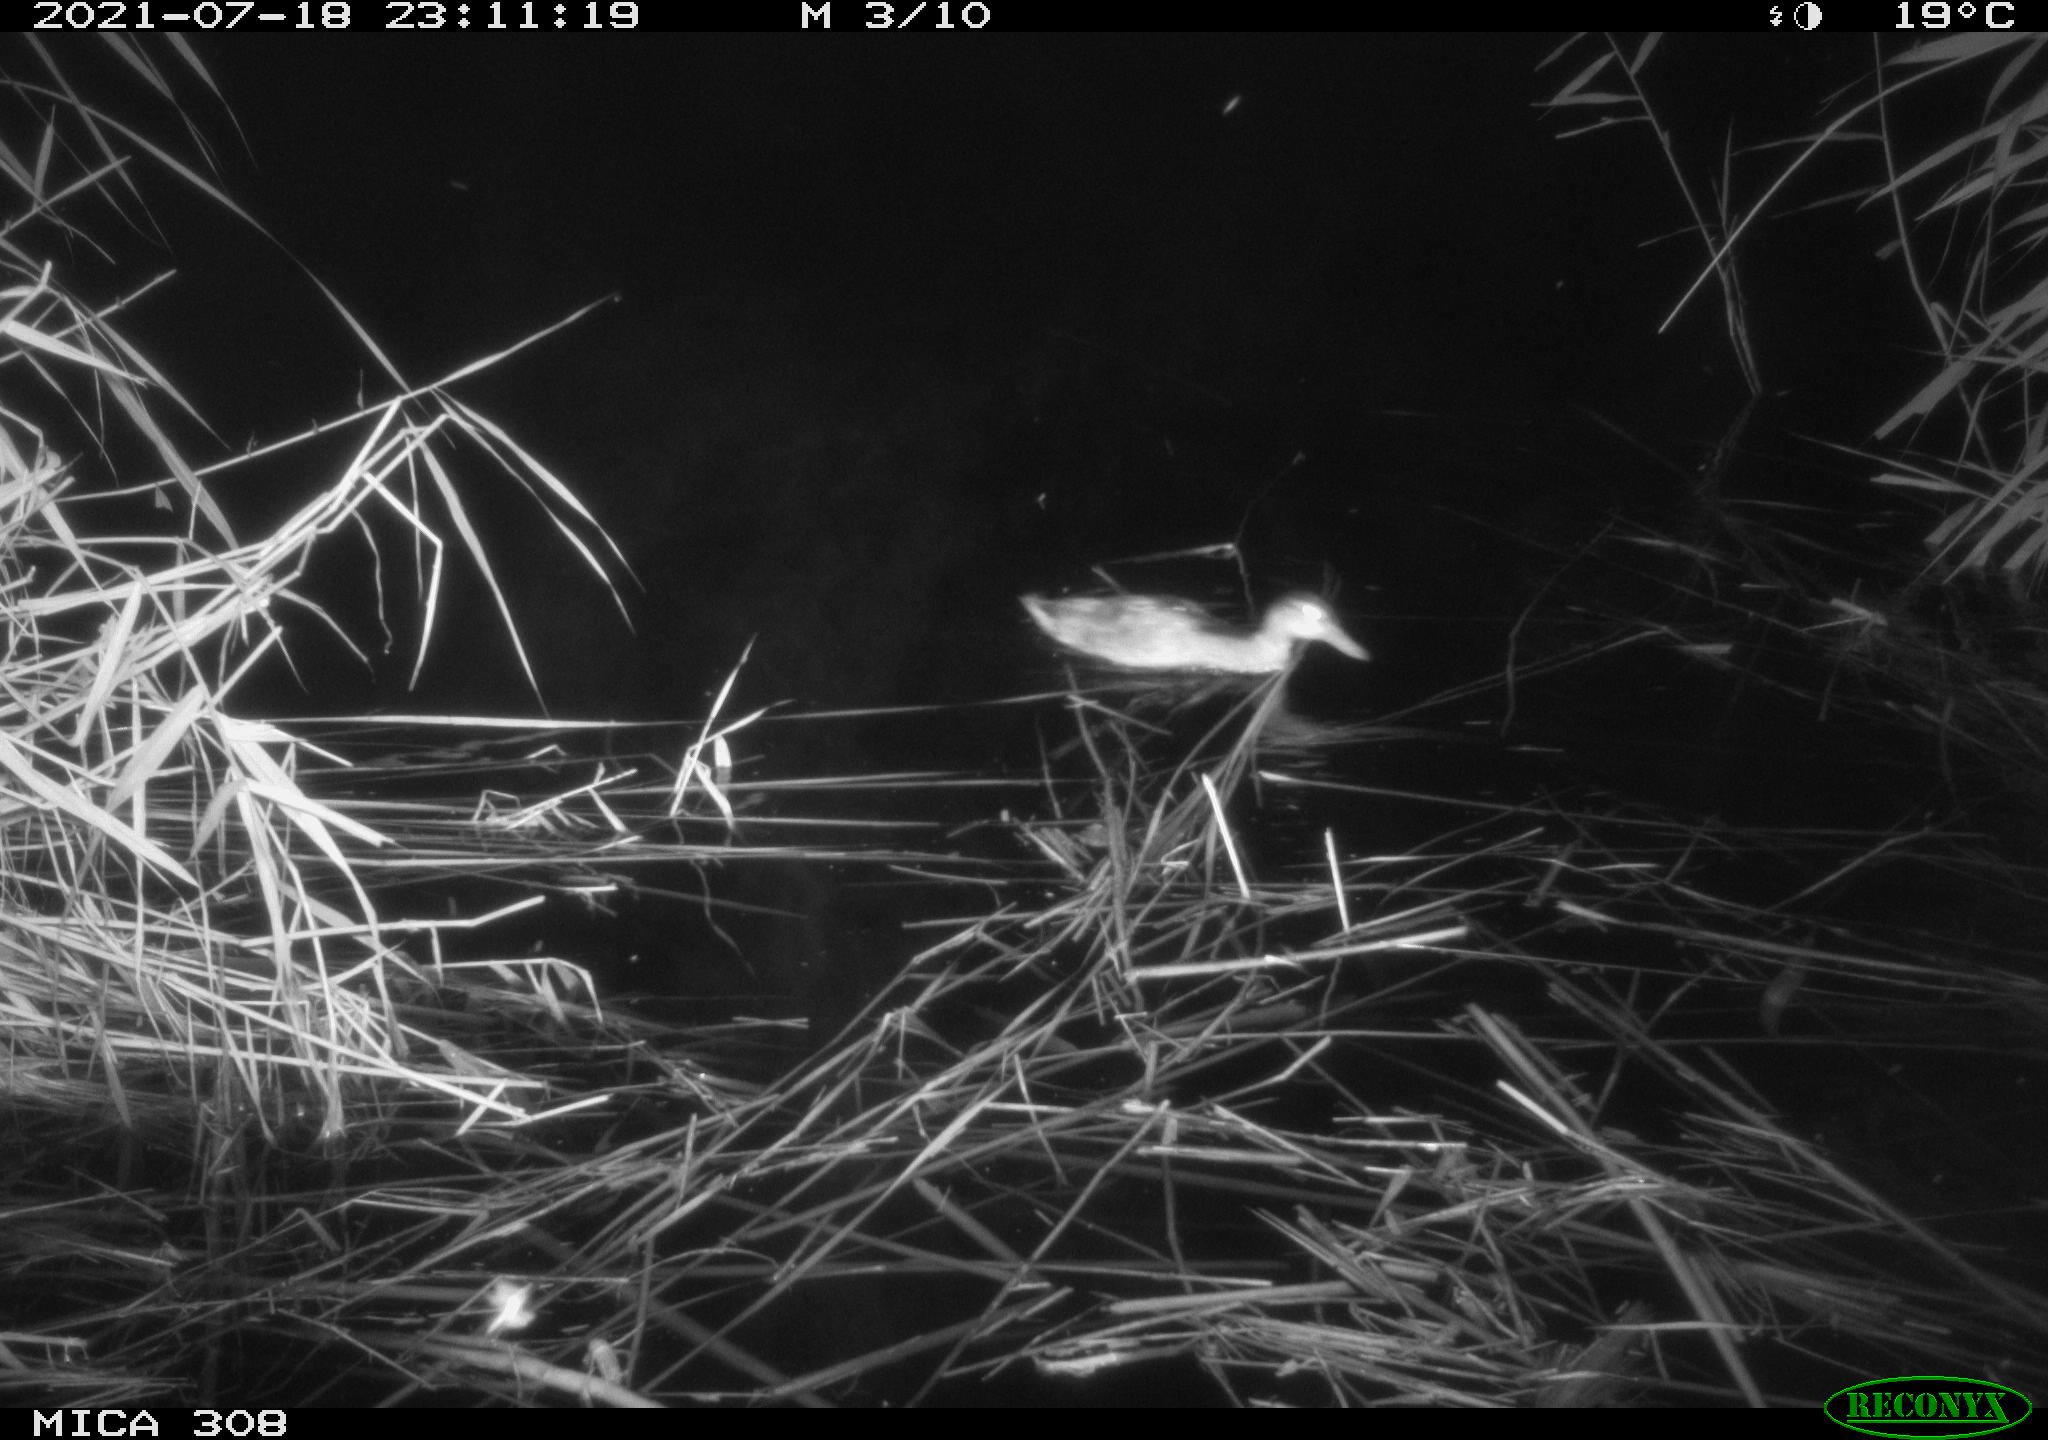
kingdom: Animalia
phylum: Chordata
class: Aves
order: Anseriformes
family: Anatidae
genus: Anas
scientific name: Anas platyrhynchos
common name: Mallard
